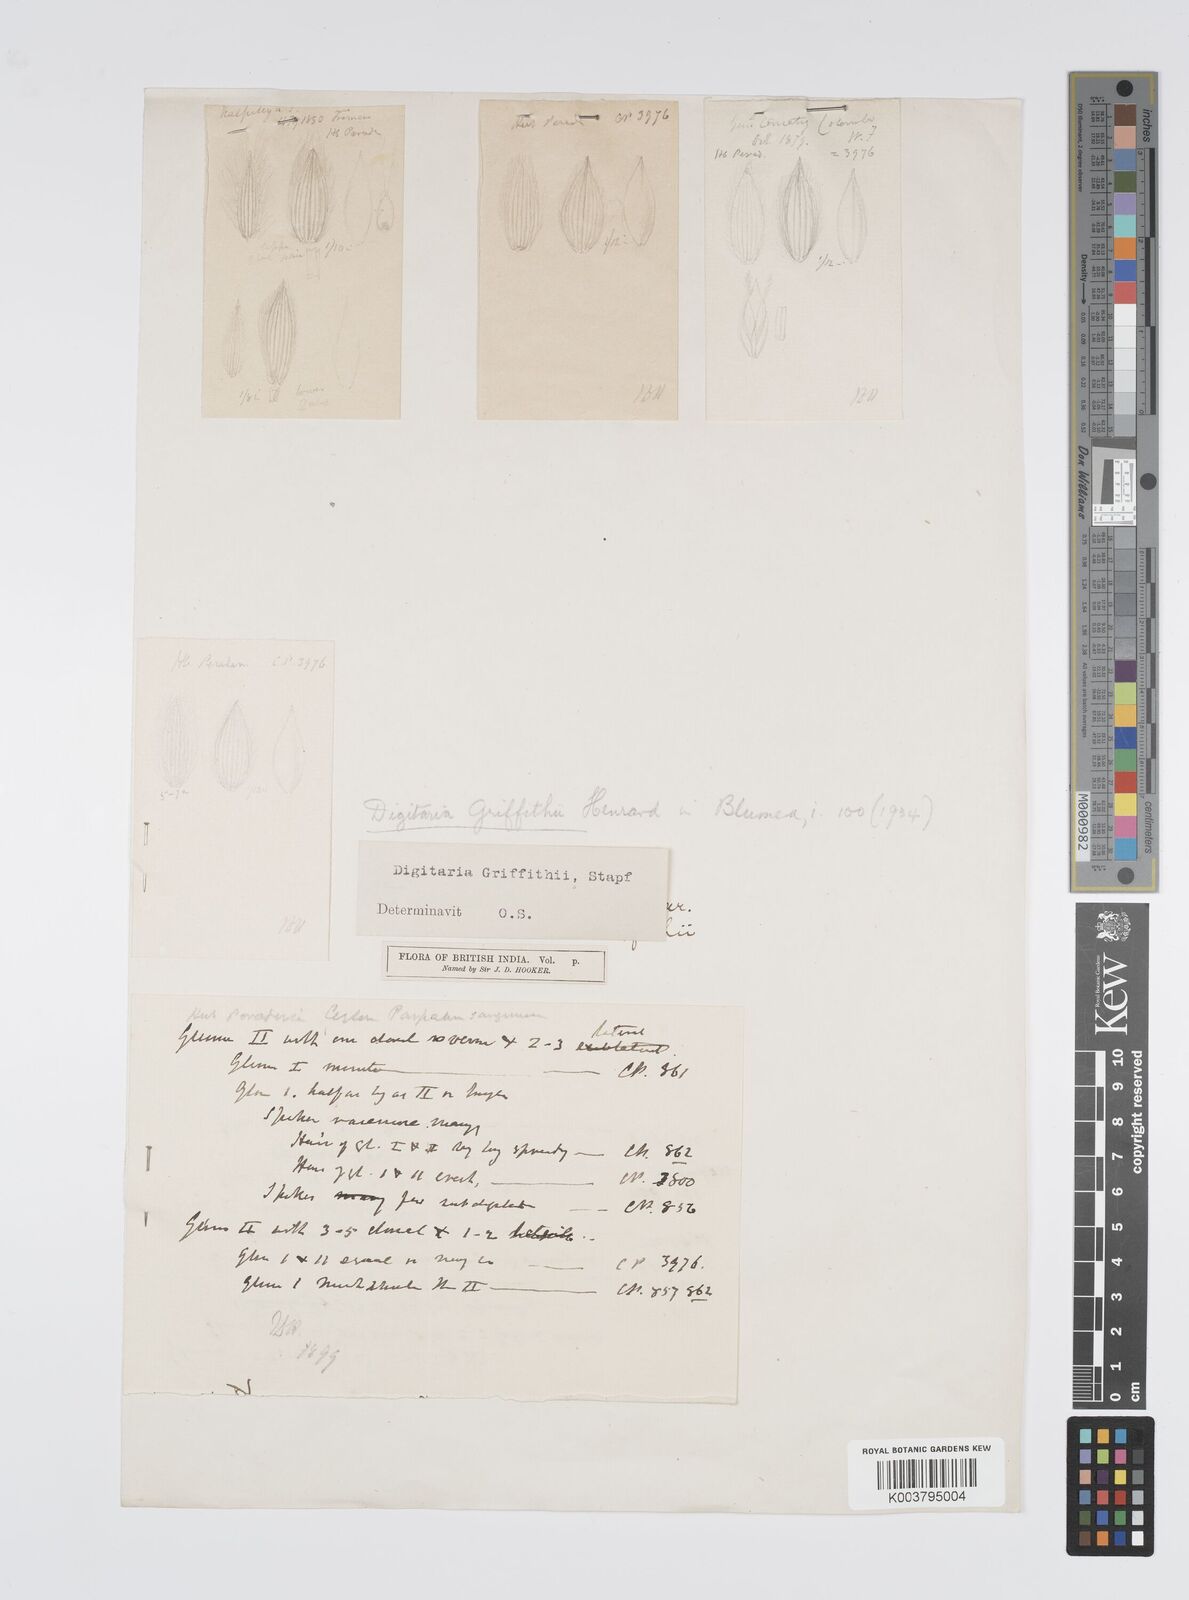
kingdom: Plantae
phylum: Tracheophyta
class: Liliopsida
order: Poales
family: Poaceae
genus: Digitaria
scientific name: Digitaria griffithii
